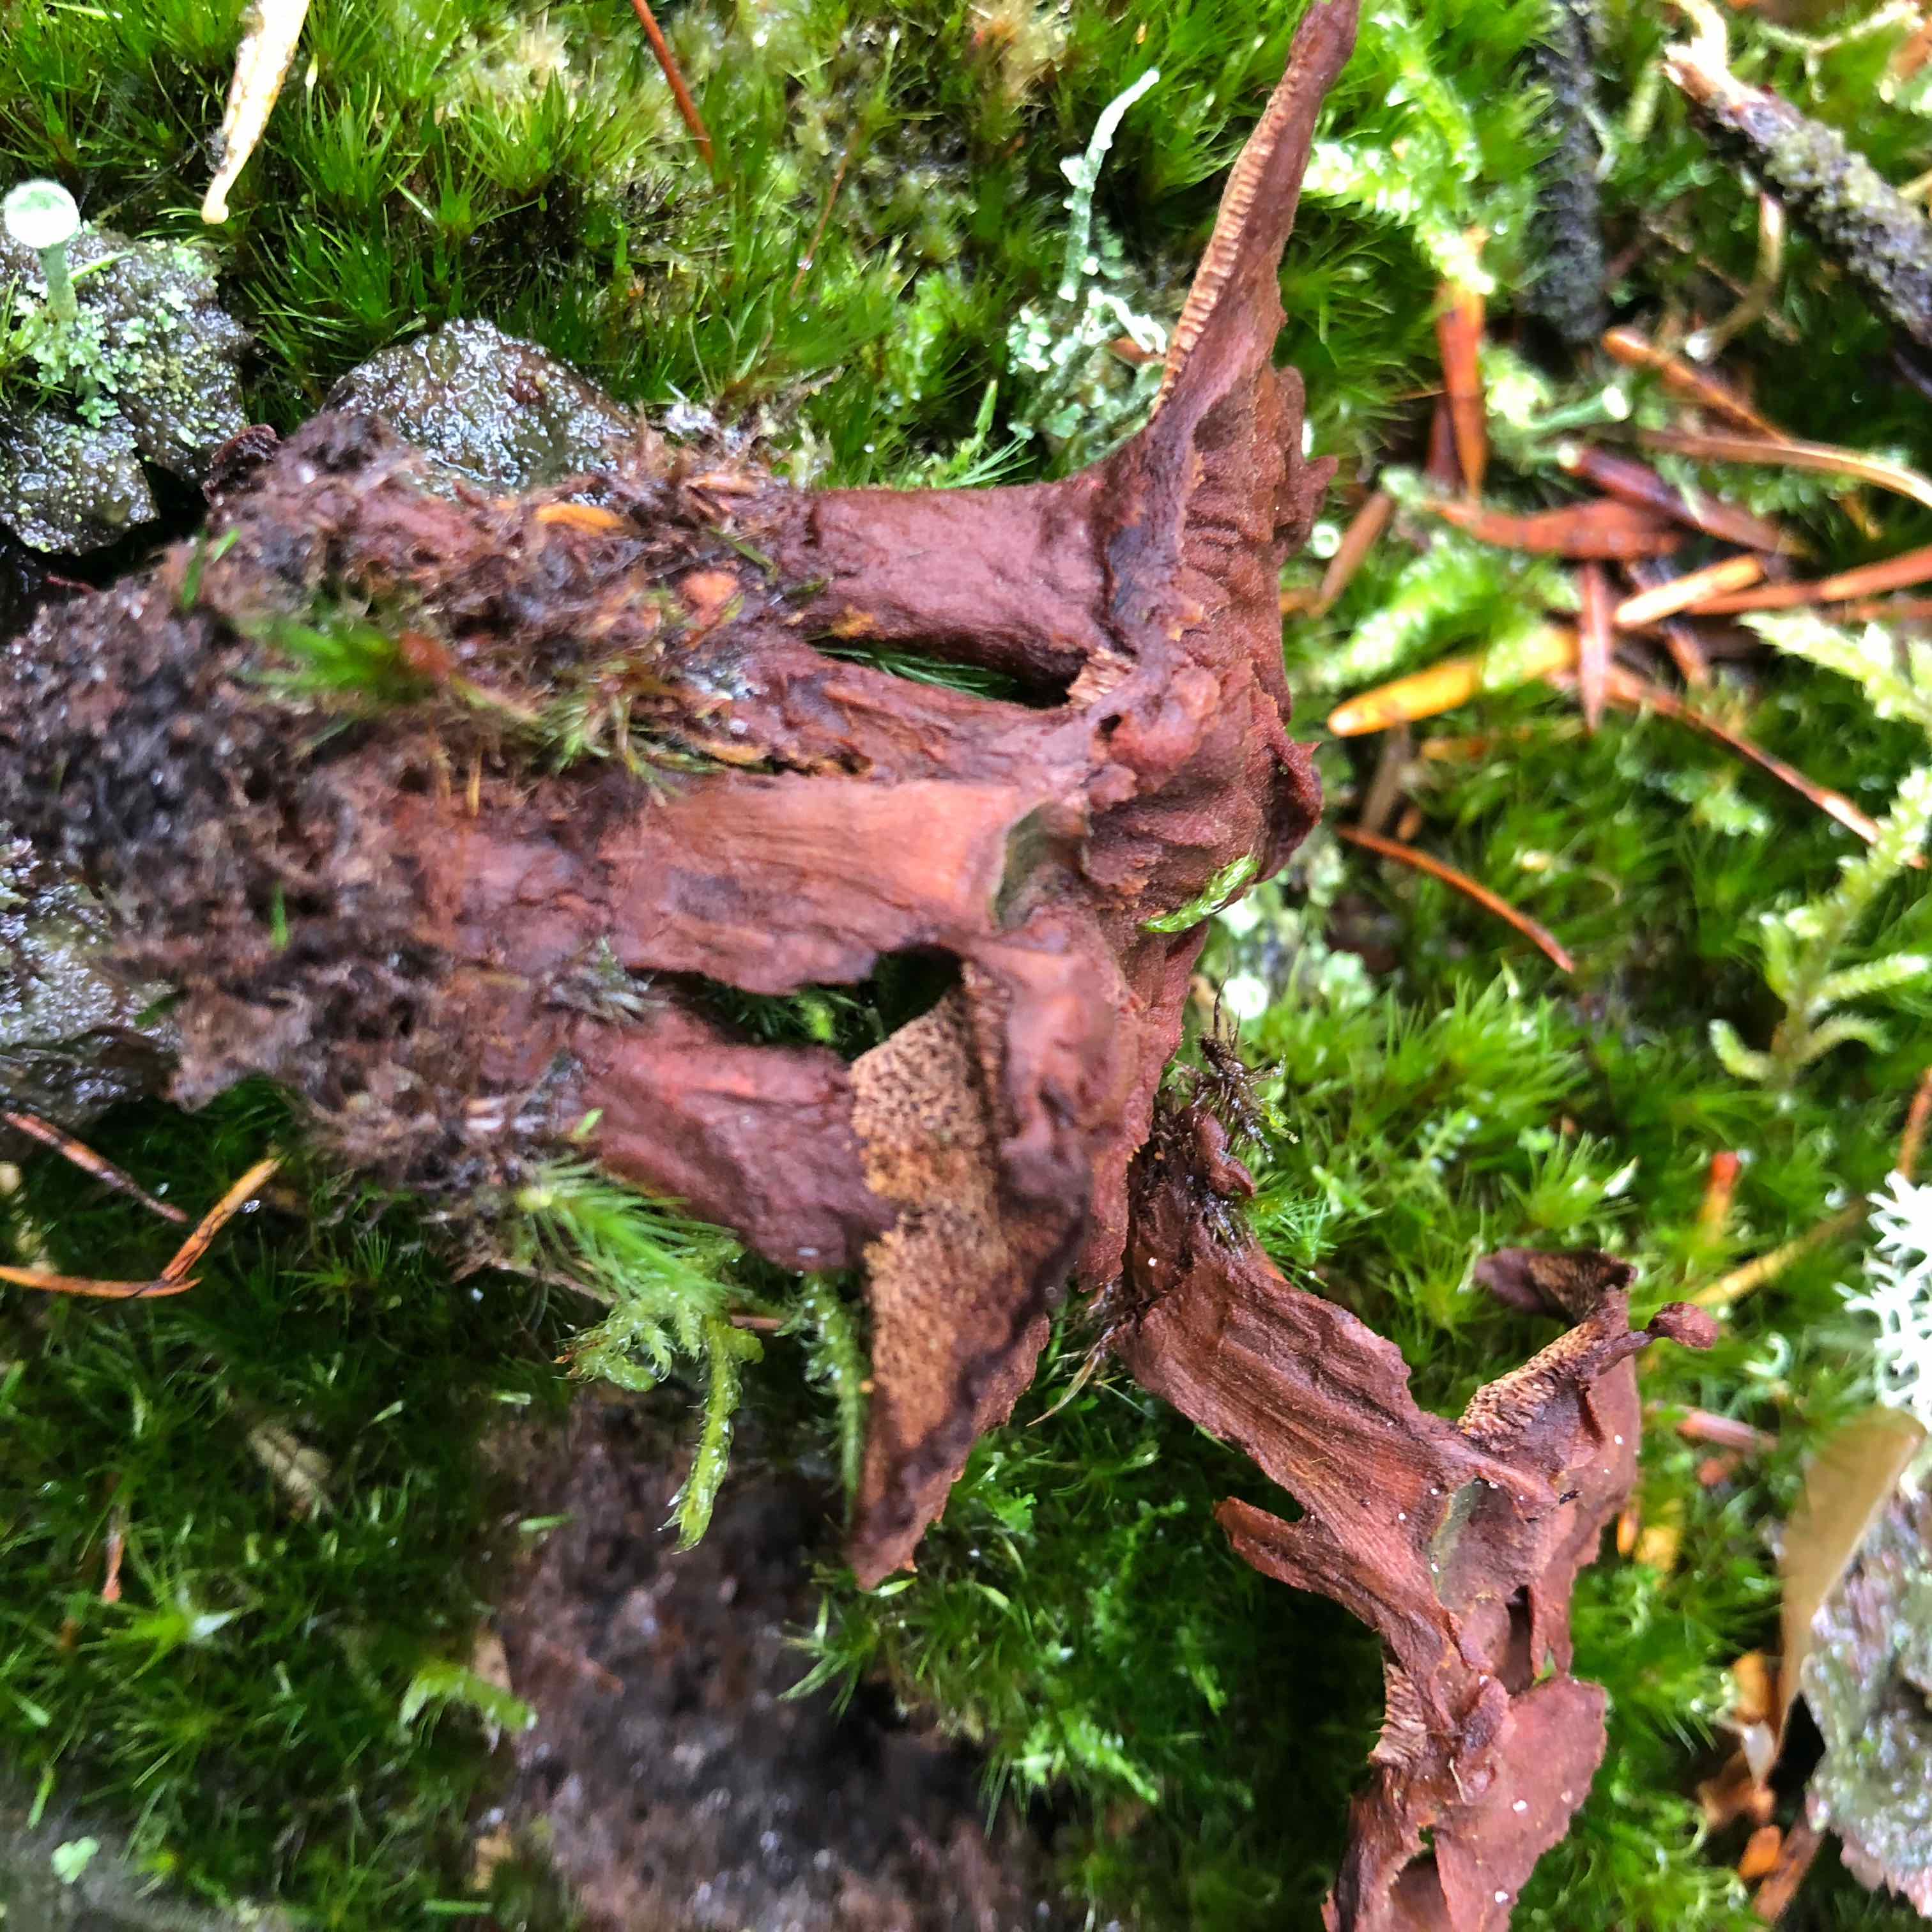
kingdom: Fungi
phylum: Basidiomycota
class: Agaricomycetes
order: Hymenochaetales
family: Hymenochaetaceae
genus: Coltricia
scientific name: Coltricia
